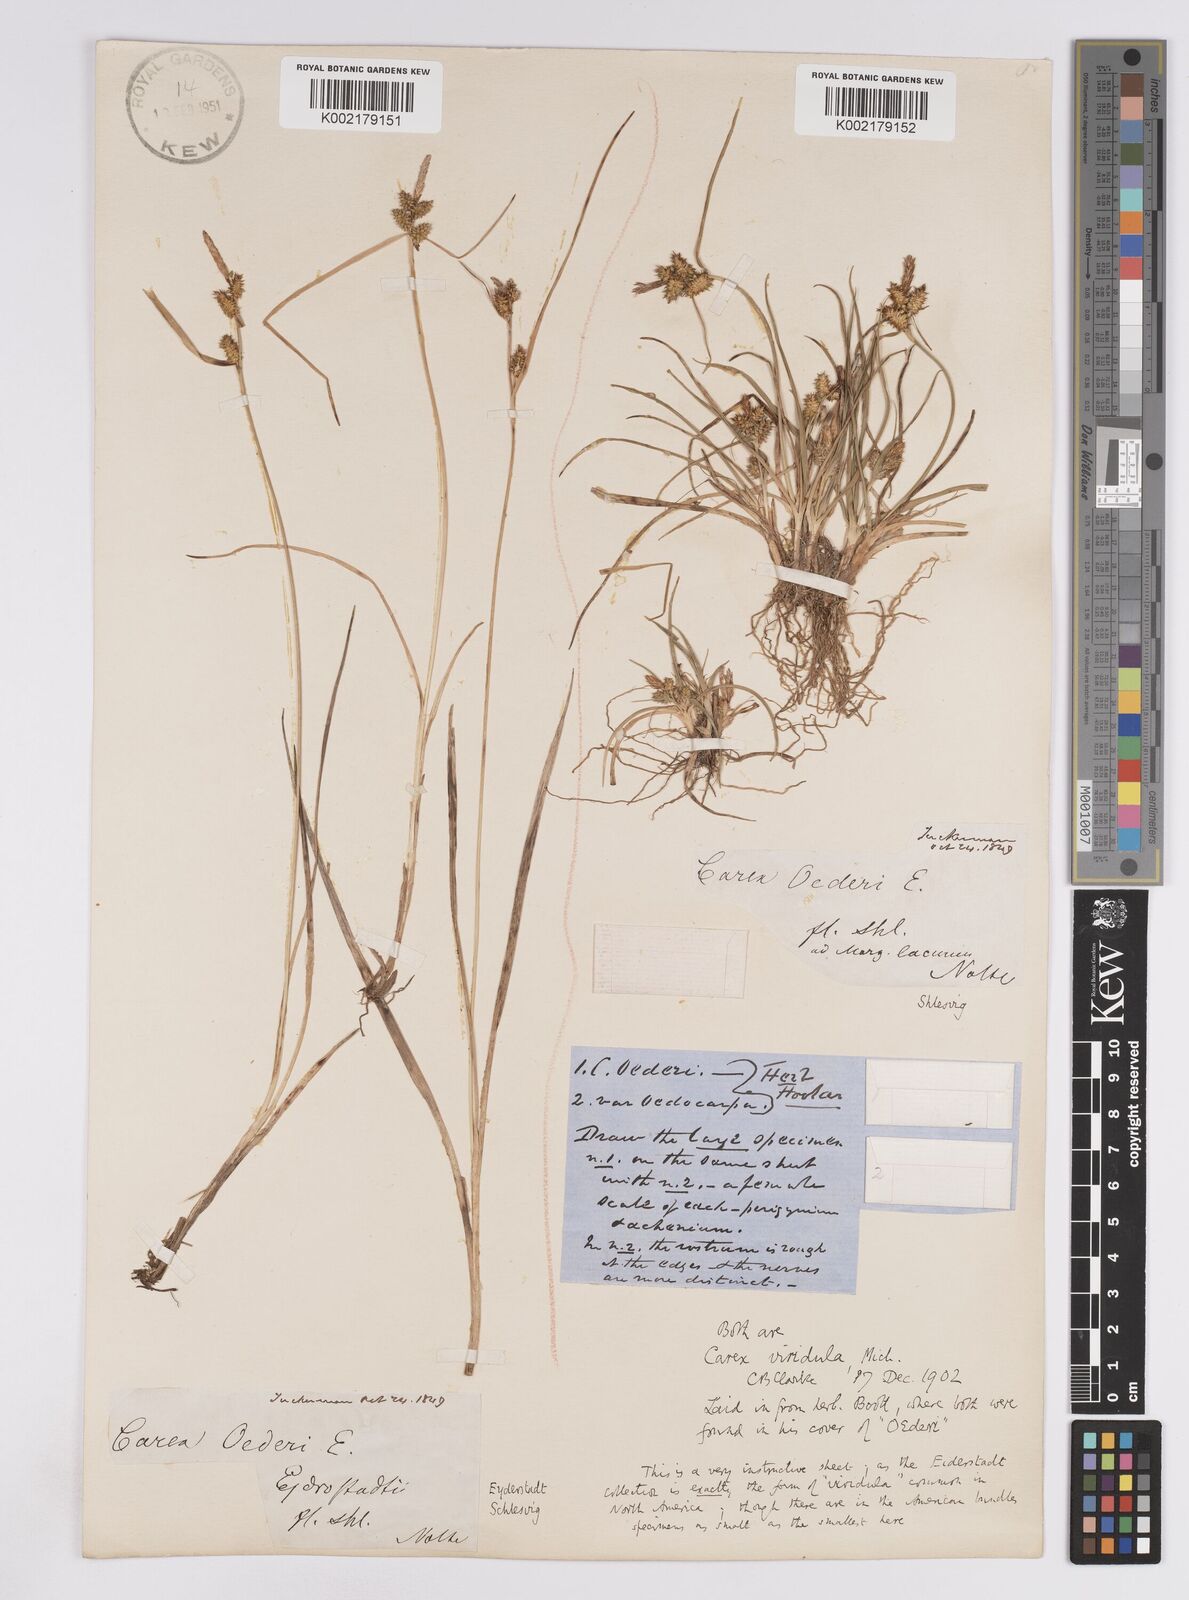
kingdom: Plantae
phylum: Tracheophyta
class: Liliopsida
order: Poales
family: Cyperaceae
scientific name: Cyperaceae
